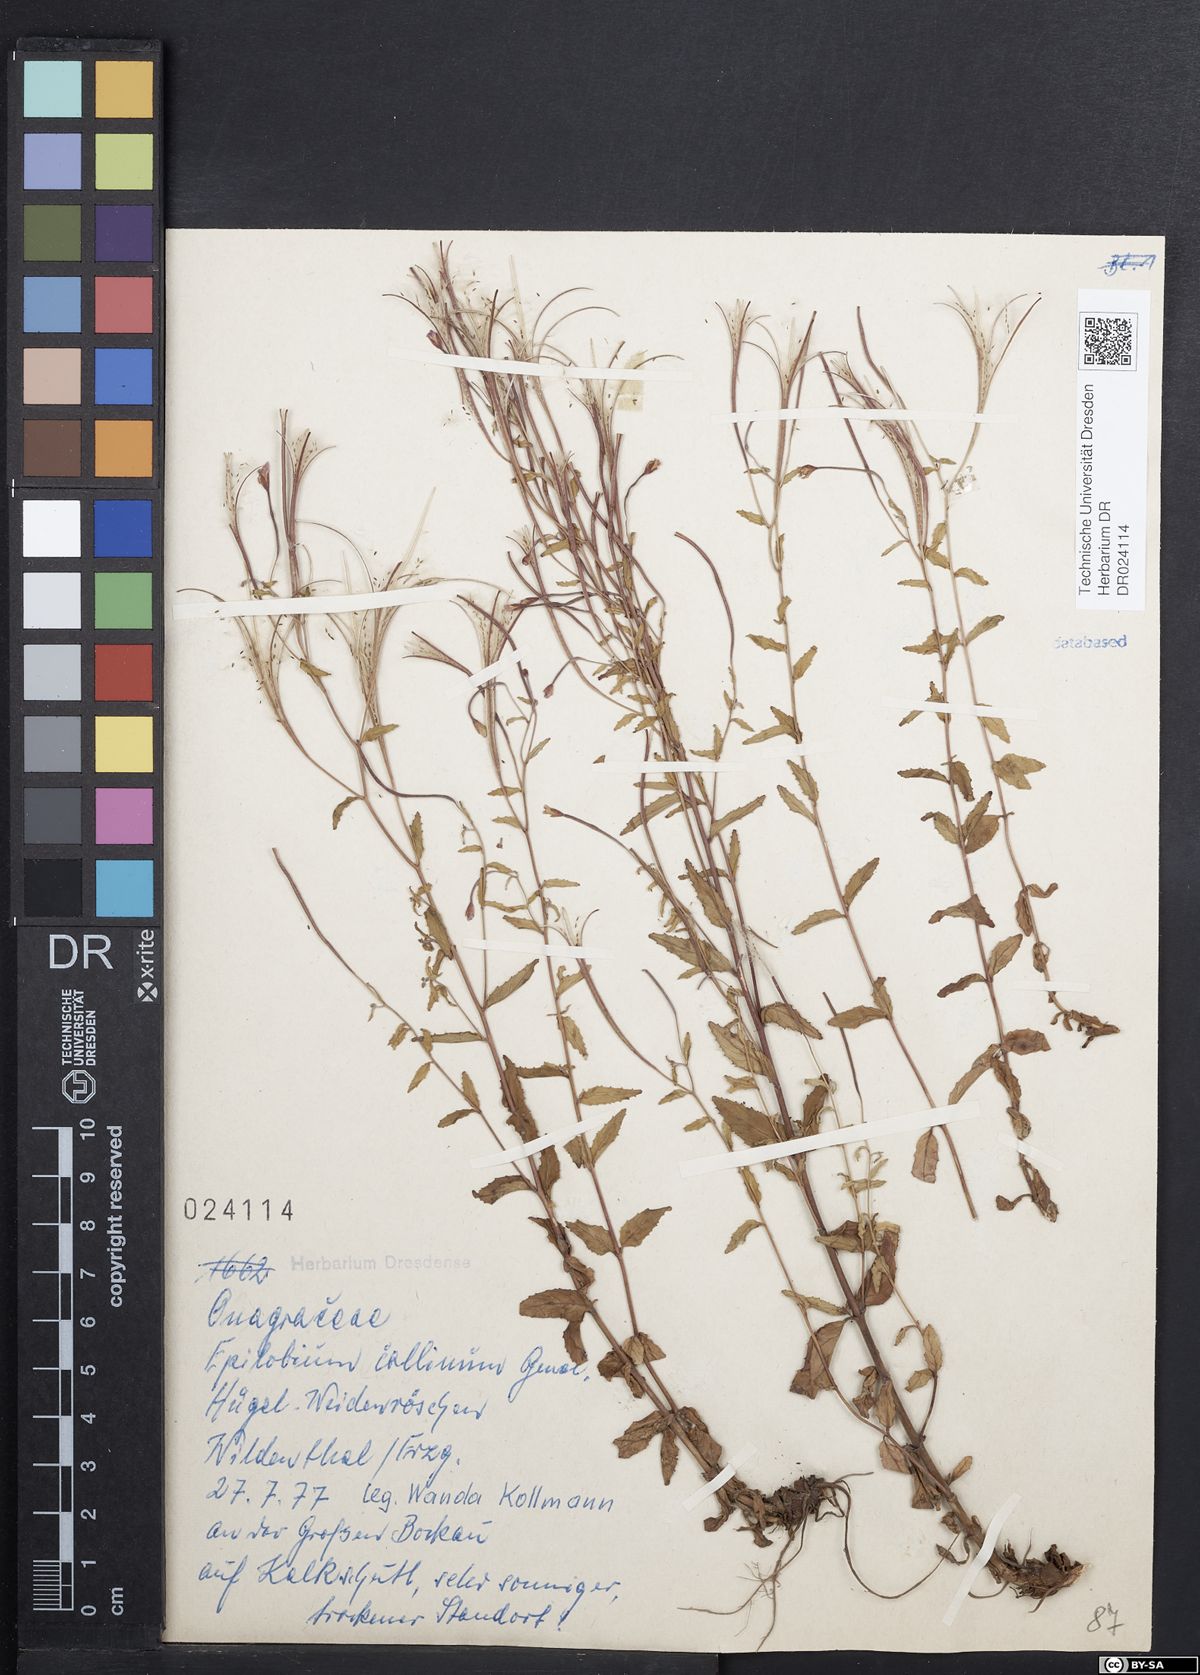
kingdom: Plantae
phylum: Tracheophyta
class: Magnoliopsida
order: Myrtales
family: Onagraceae
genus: Epilobium
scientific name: Epilobium collinum
